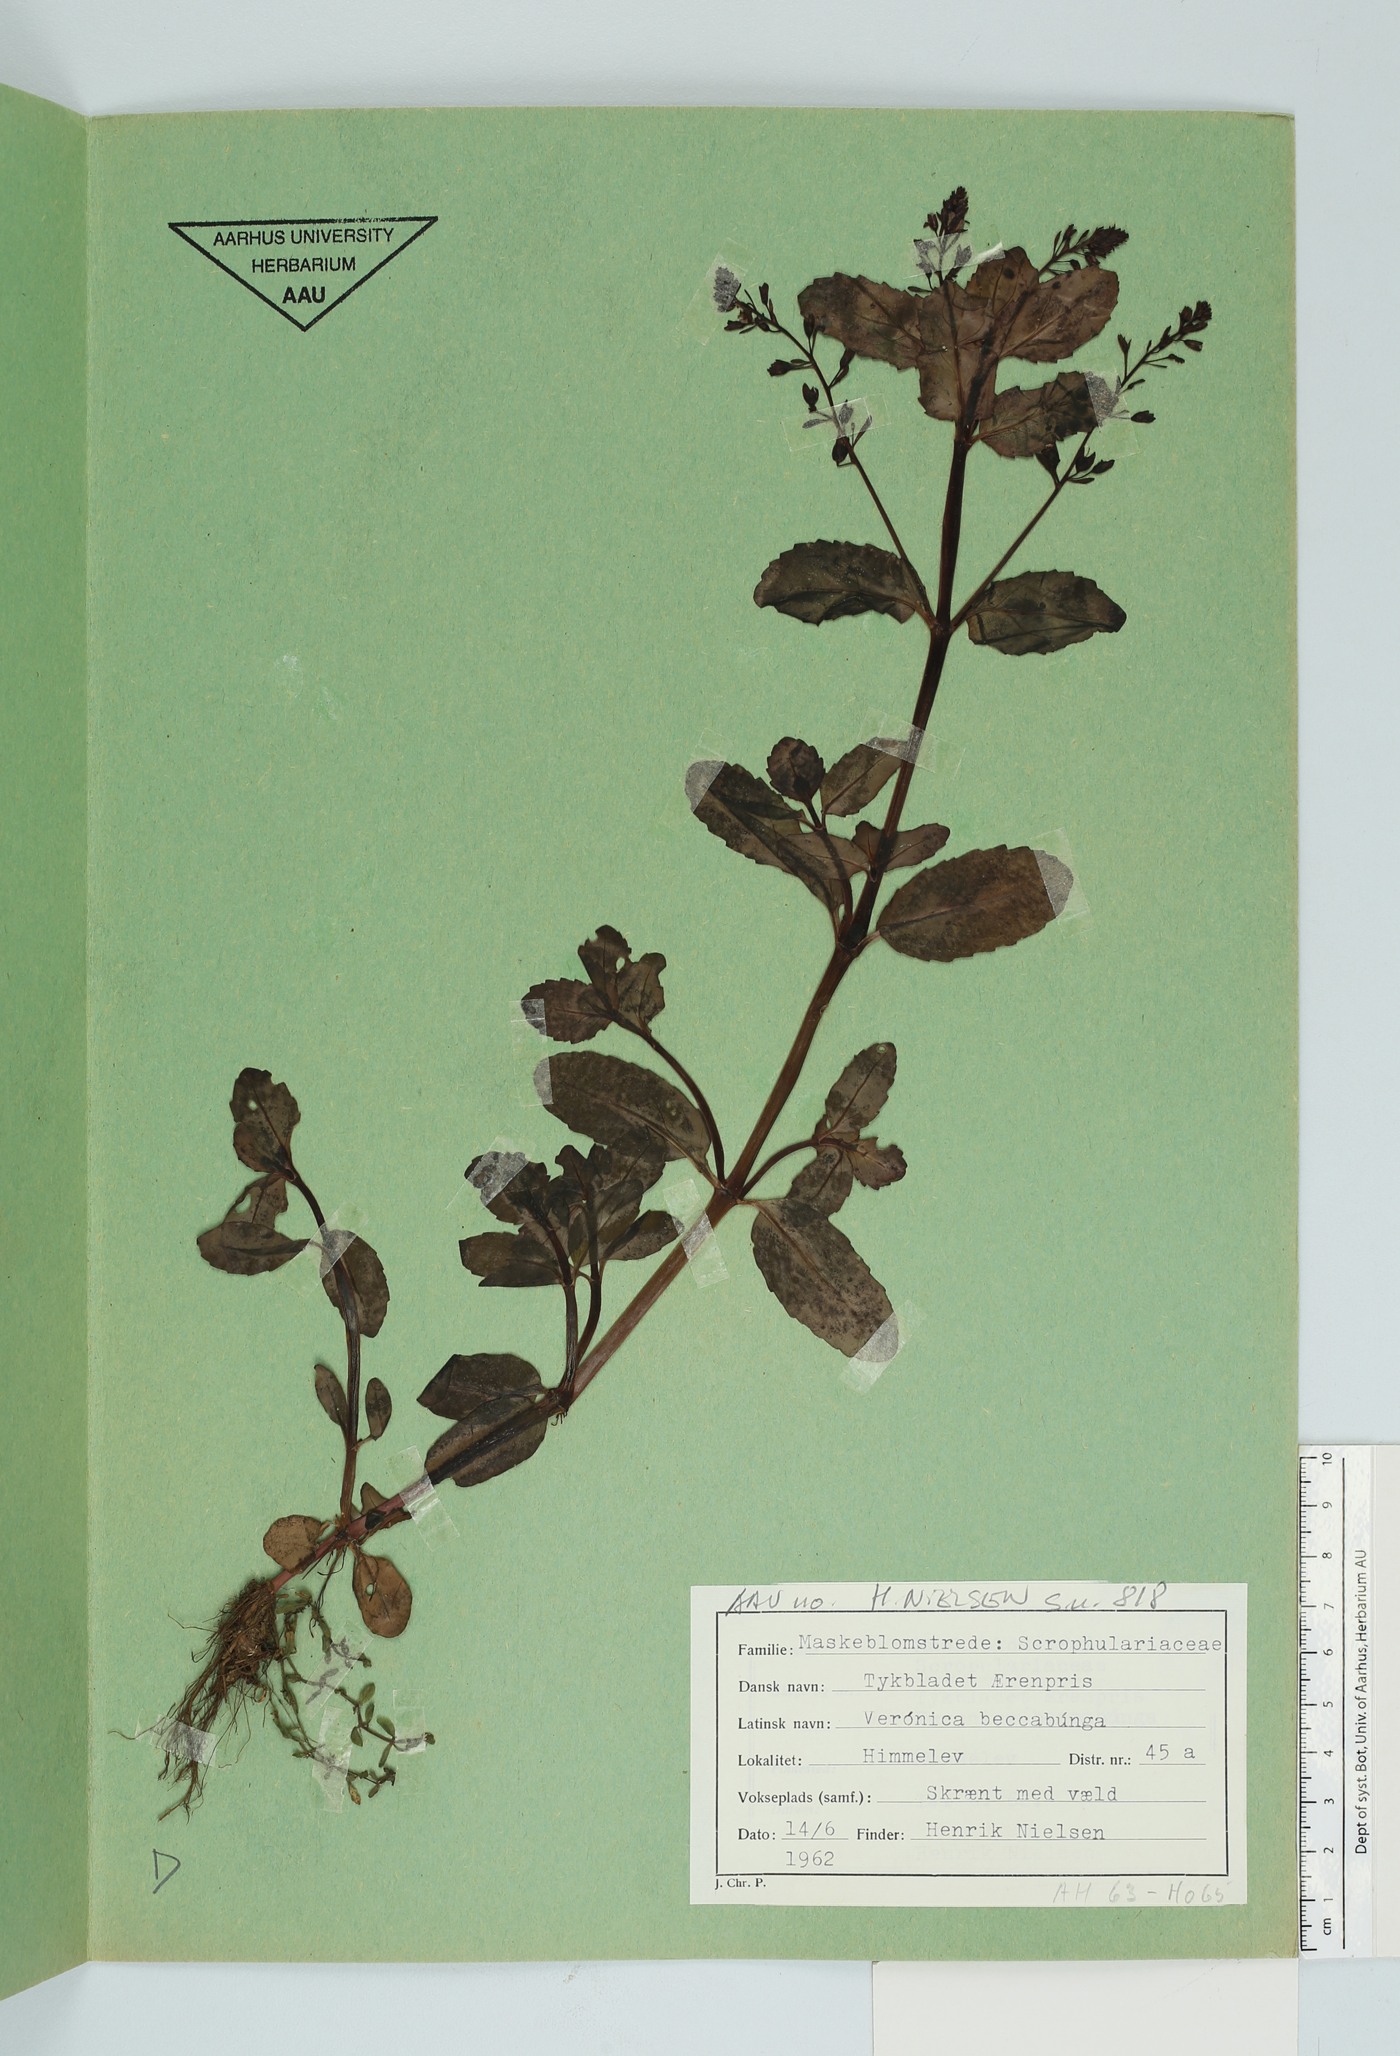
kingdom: Plantae
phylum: Tracheophyta
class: Magnoliopsida
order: Lamiales
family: Plantaginaceae
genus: Veronica
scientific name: Veronica beccabunga
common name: Brooklime
